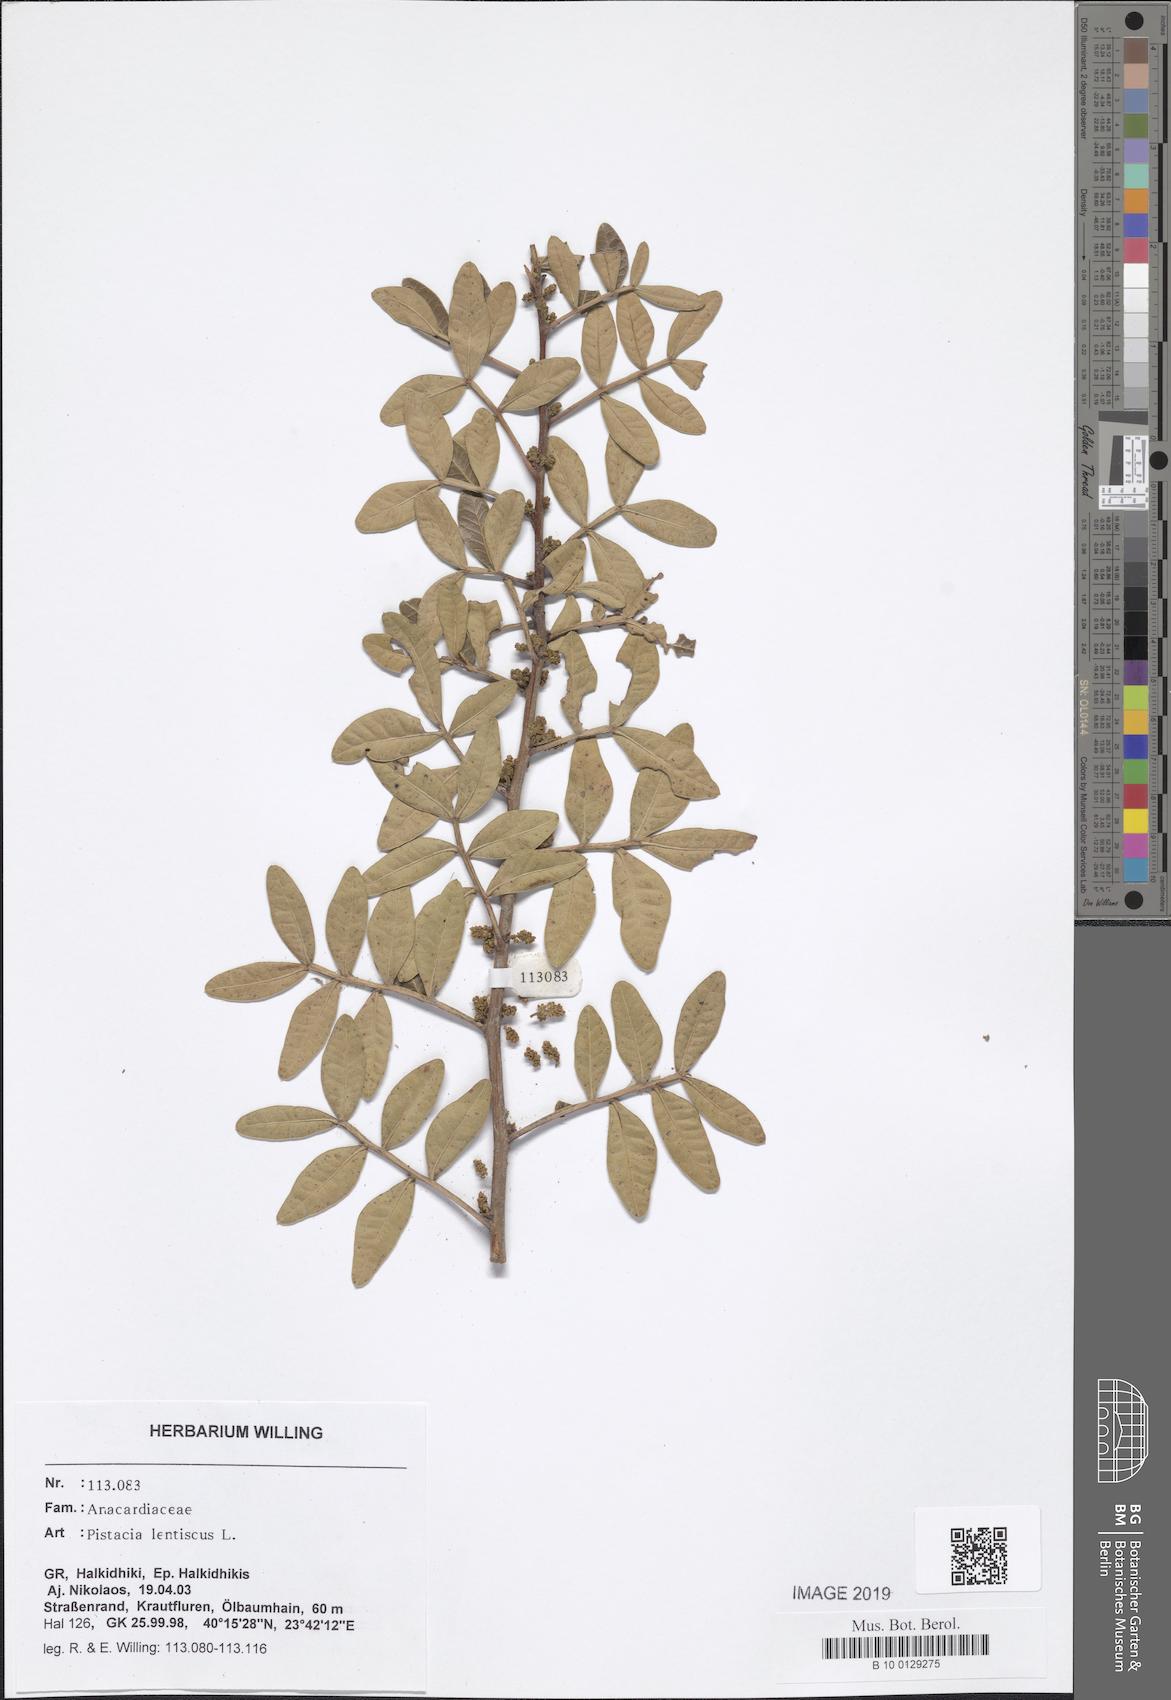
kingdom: Plantae
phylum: Tracheophyta
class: Magnoliopsida
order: Sapindales
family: Anacardiaceae
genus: Pistacia
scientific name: Pistacia lentiscus
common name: Lentisk
